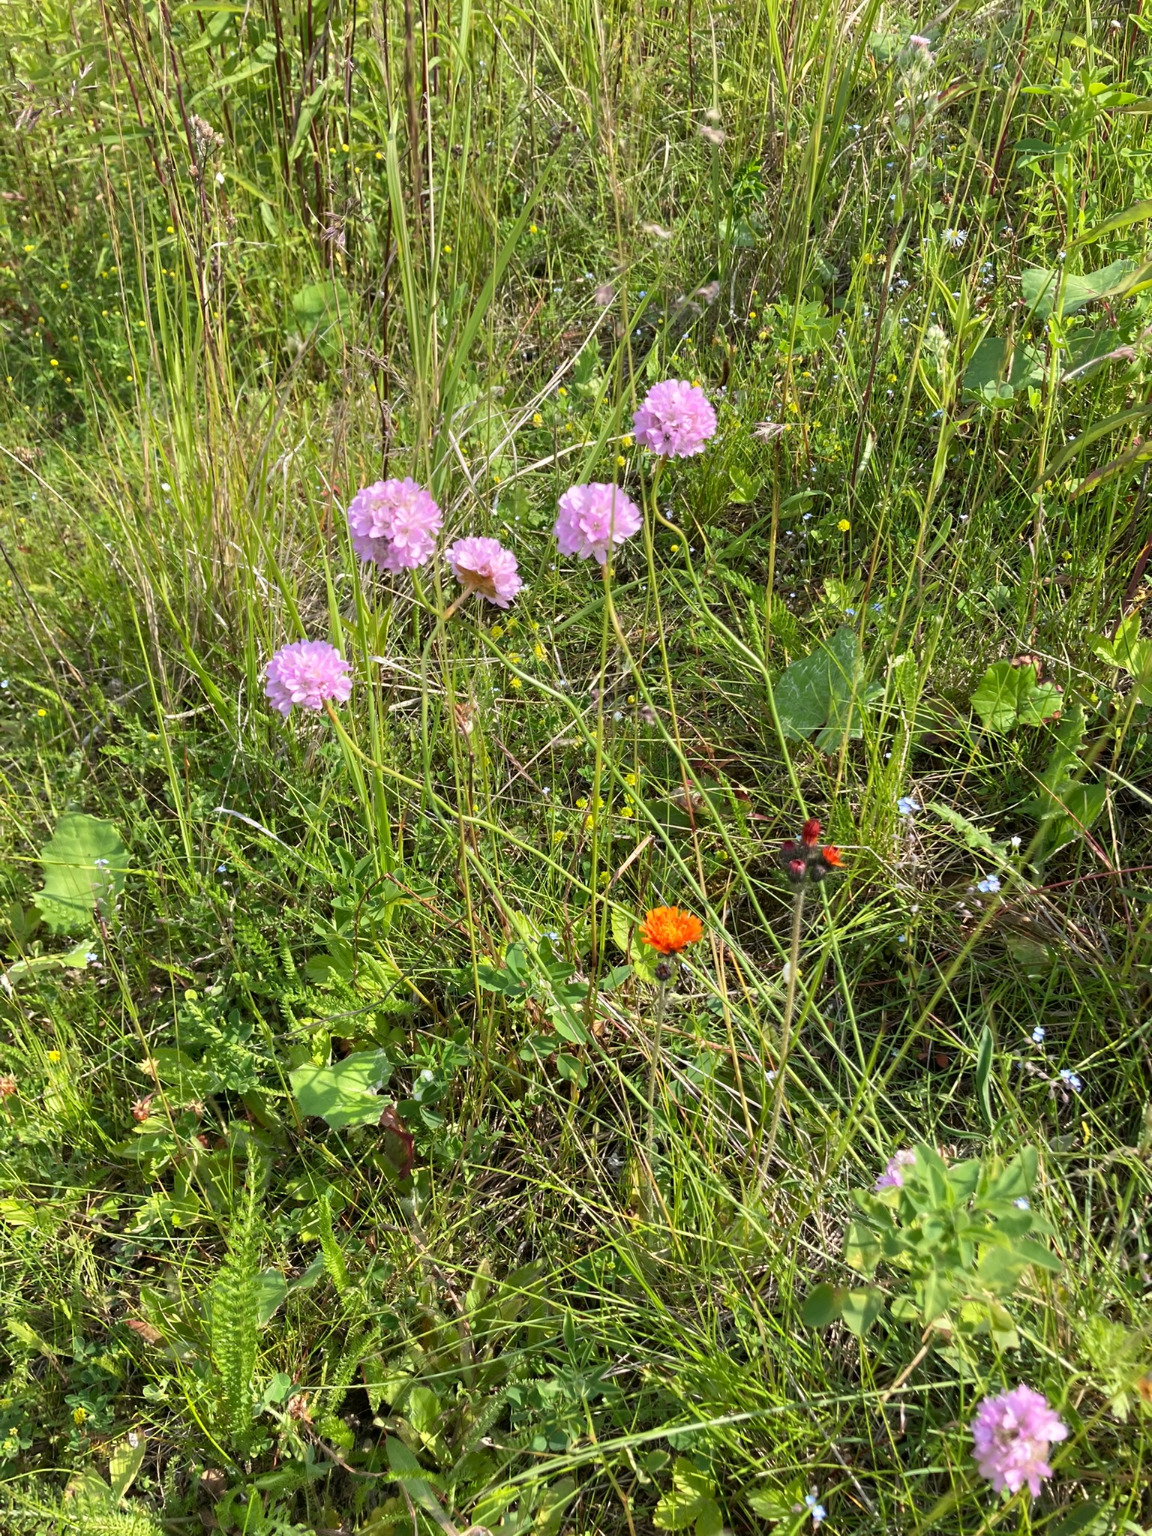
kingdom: Plantae
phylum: Tracheophyta
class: Magnoliopsida
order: Caryophyllales
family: Plumbaginaceae
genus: Armeria
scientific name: Armeria maritima
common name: Engelskgræs
